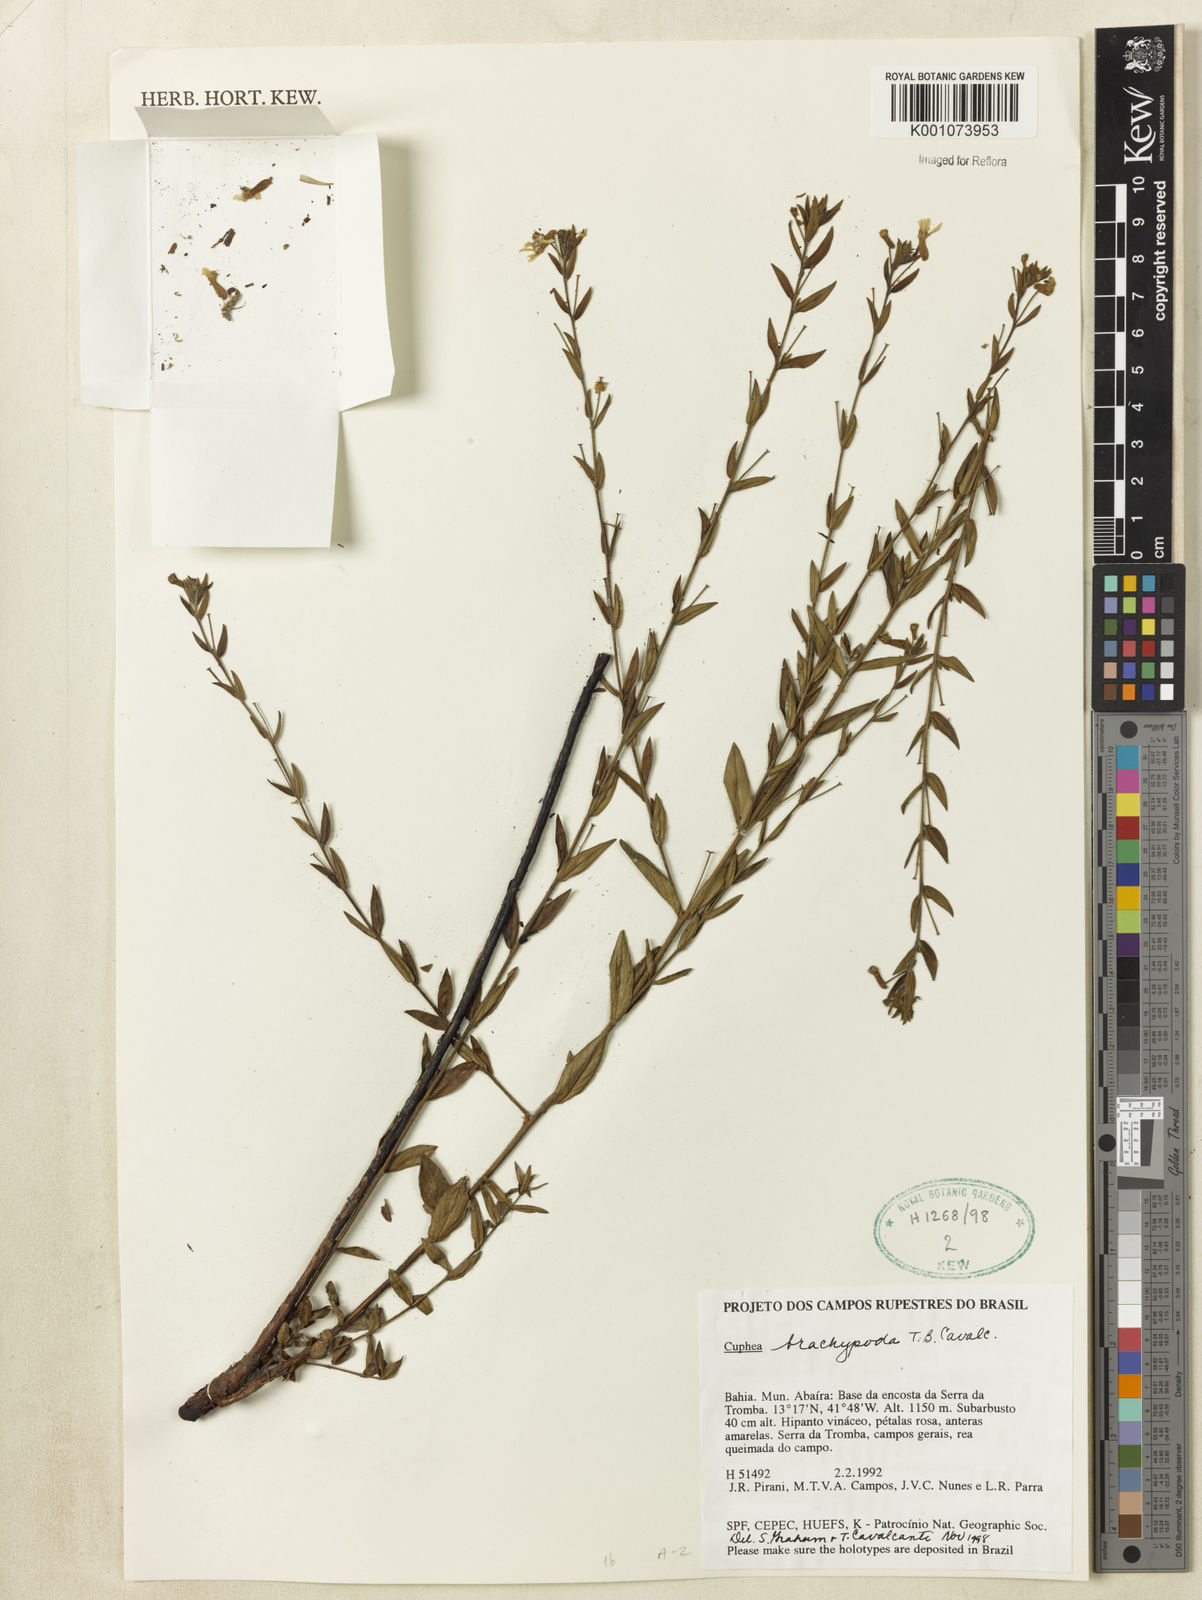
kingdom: Plantae
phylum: Tracheophyta
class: Magnoliopsida
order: Myrtales
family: Lythraceae
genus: Cuphea
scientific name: Cuphea sessiliflora
